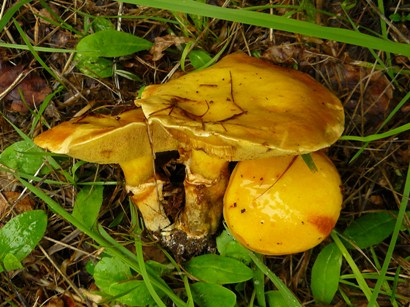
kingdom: Fungi
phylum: Basidiomycota
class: Agaricomycetes
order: Boletales
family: Suillaceae
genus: Suillus
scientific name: Suillus grevillei
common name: lærke-slimrørhat
